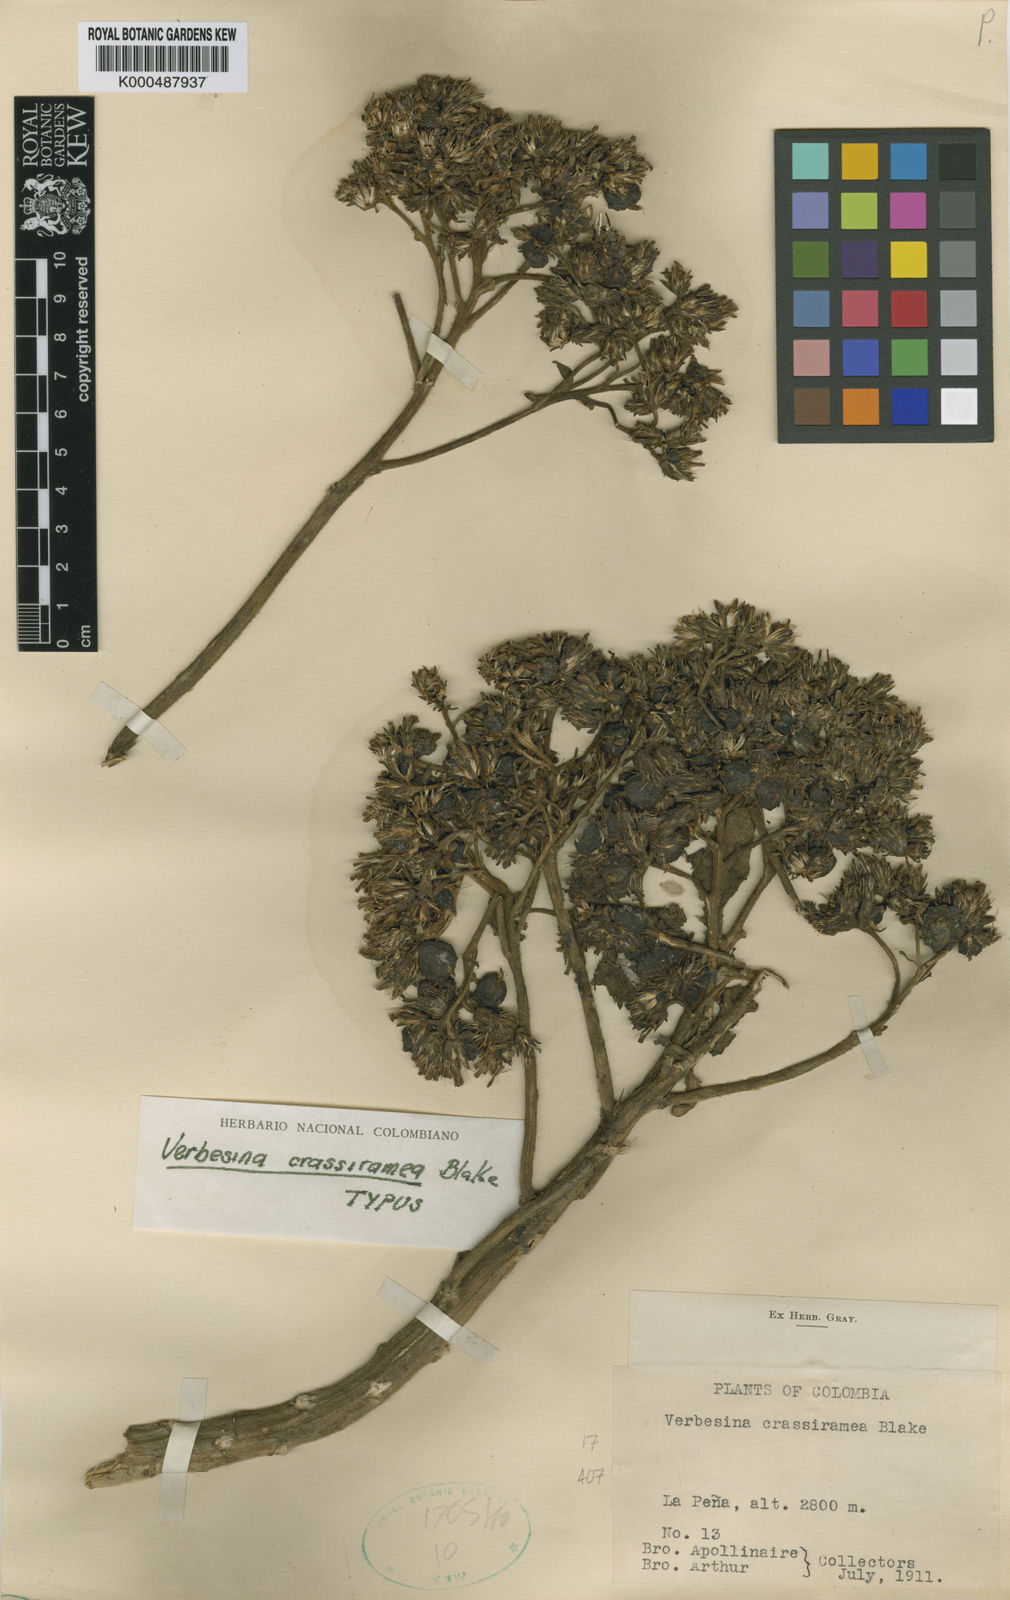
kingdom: Plantae
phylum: Tracheophyta
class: Magnoliopsida
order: Asterales
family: Asteraceae
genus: Verbesina
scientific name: Verbesina crassiramea
